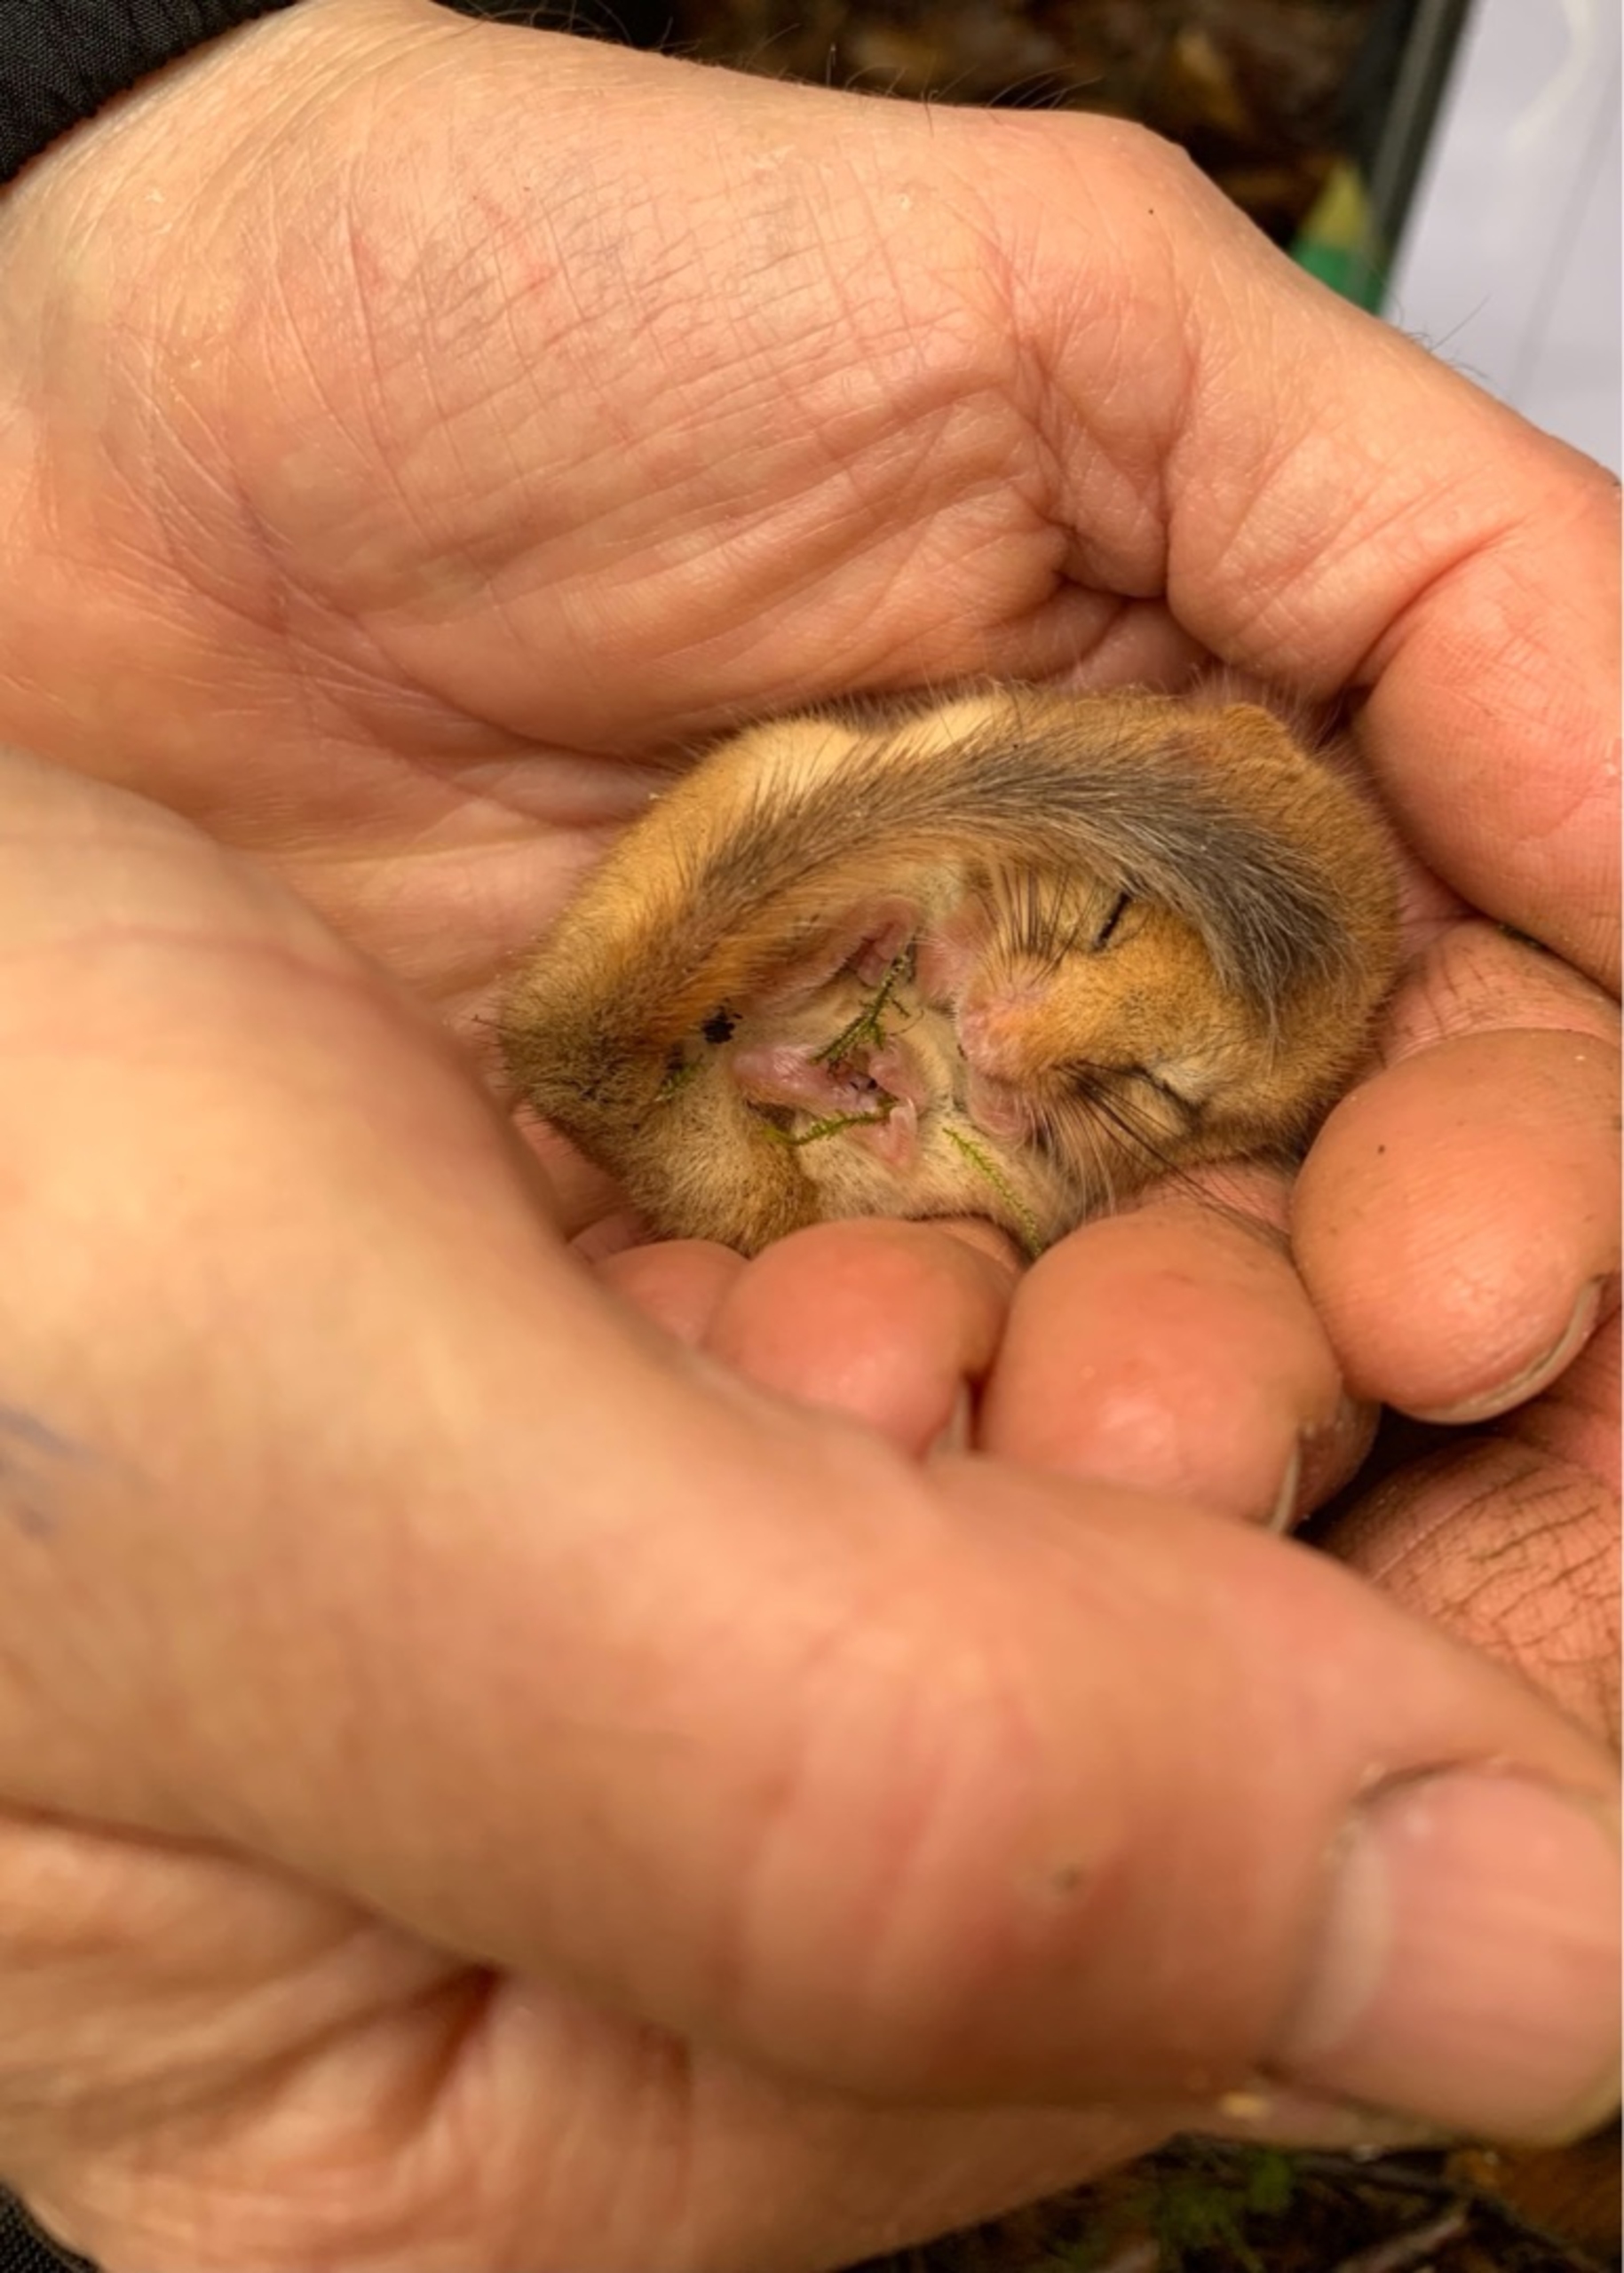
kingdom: Animalia
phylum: Chordata
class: Mammalia
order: Rodentia
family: Gliridae
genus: Muscardinus
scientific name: Muscardinus avellanarius
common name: Hasselmus
